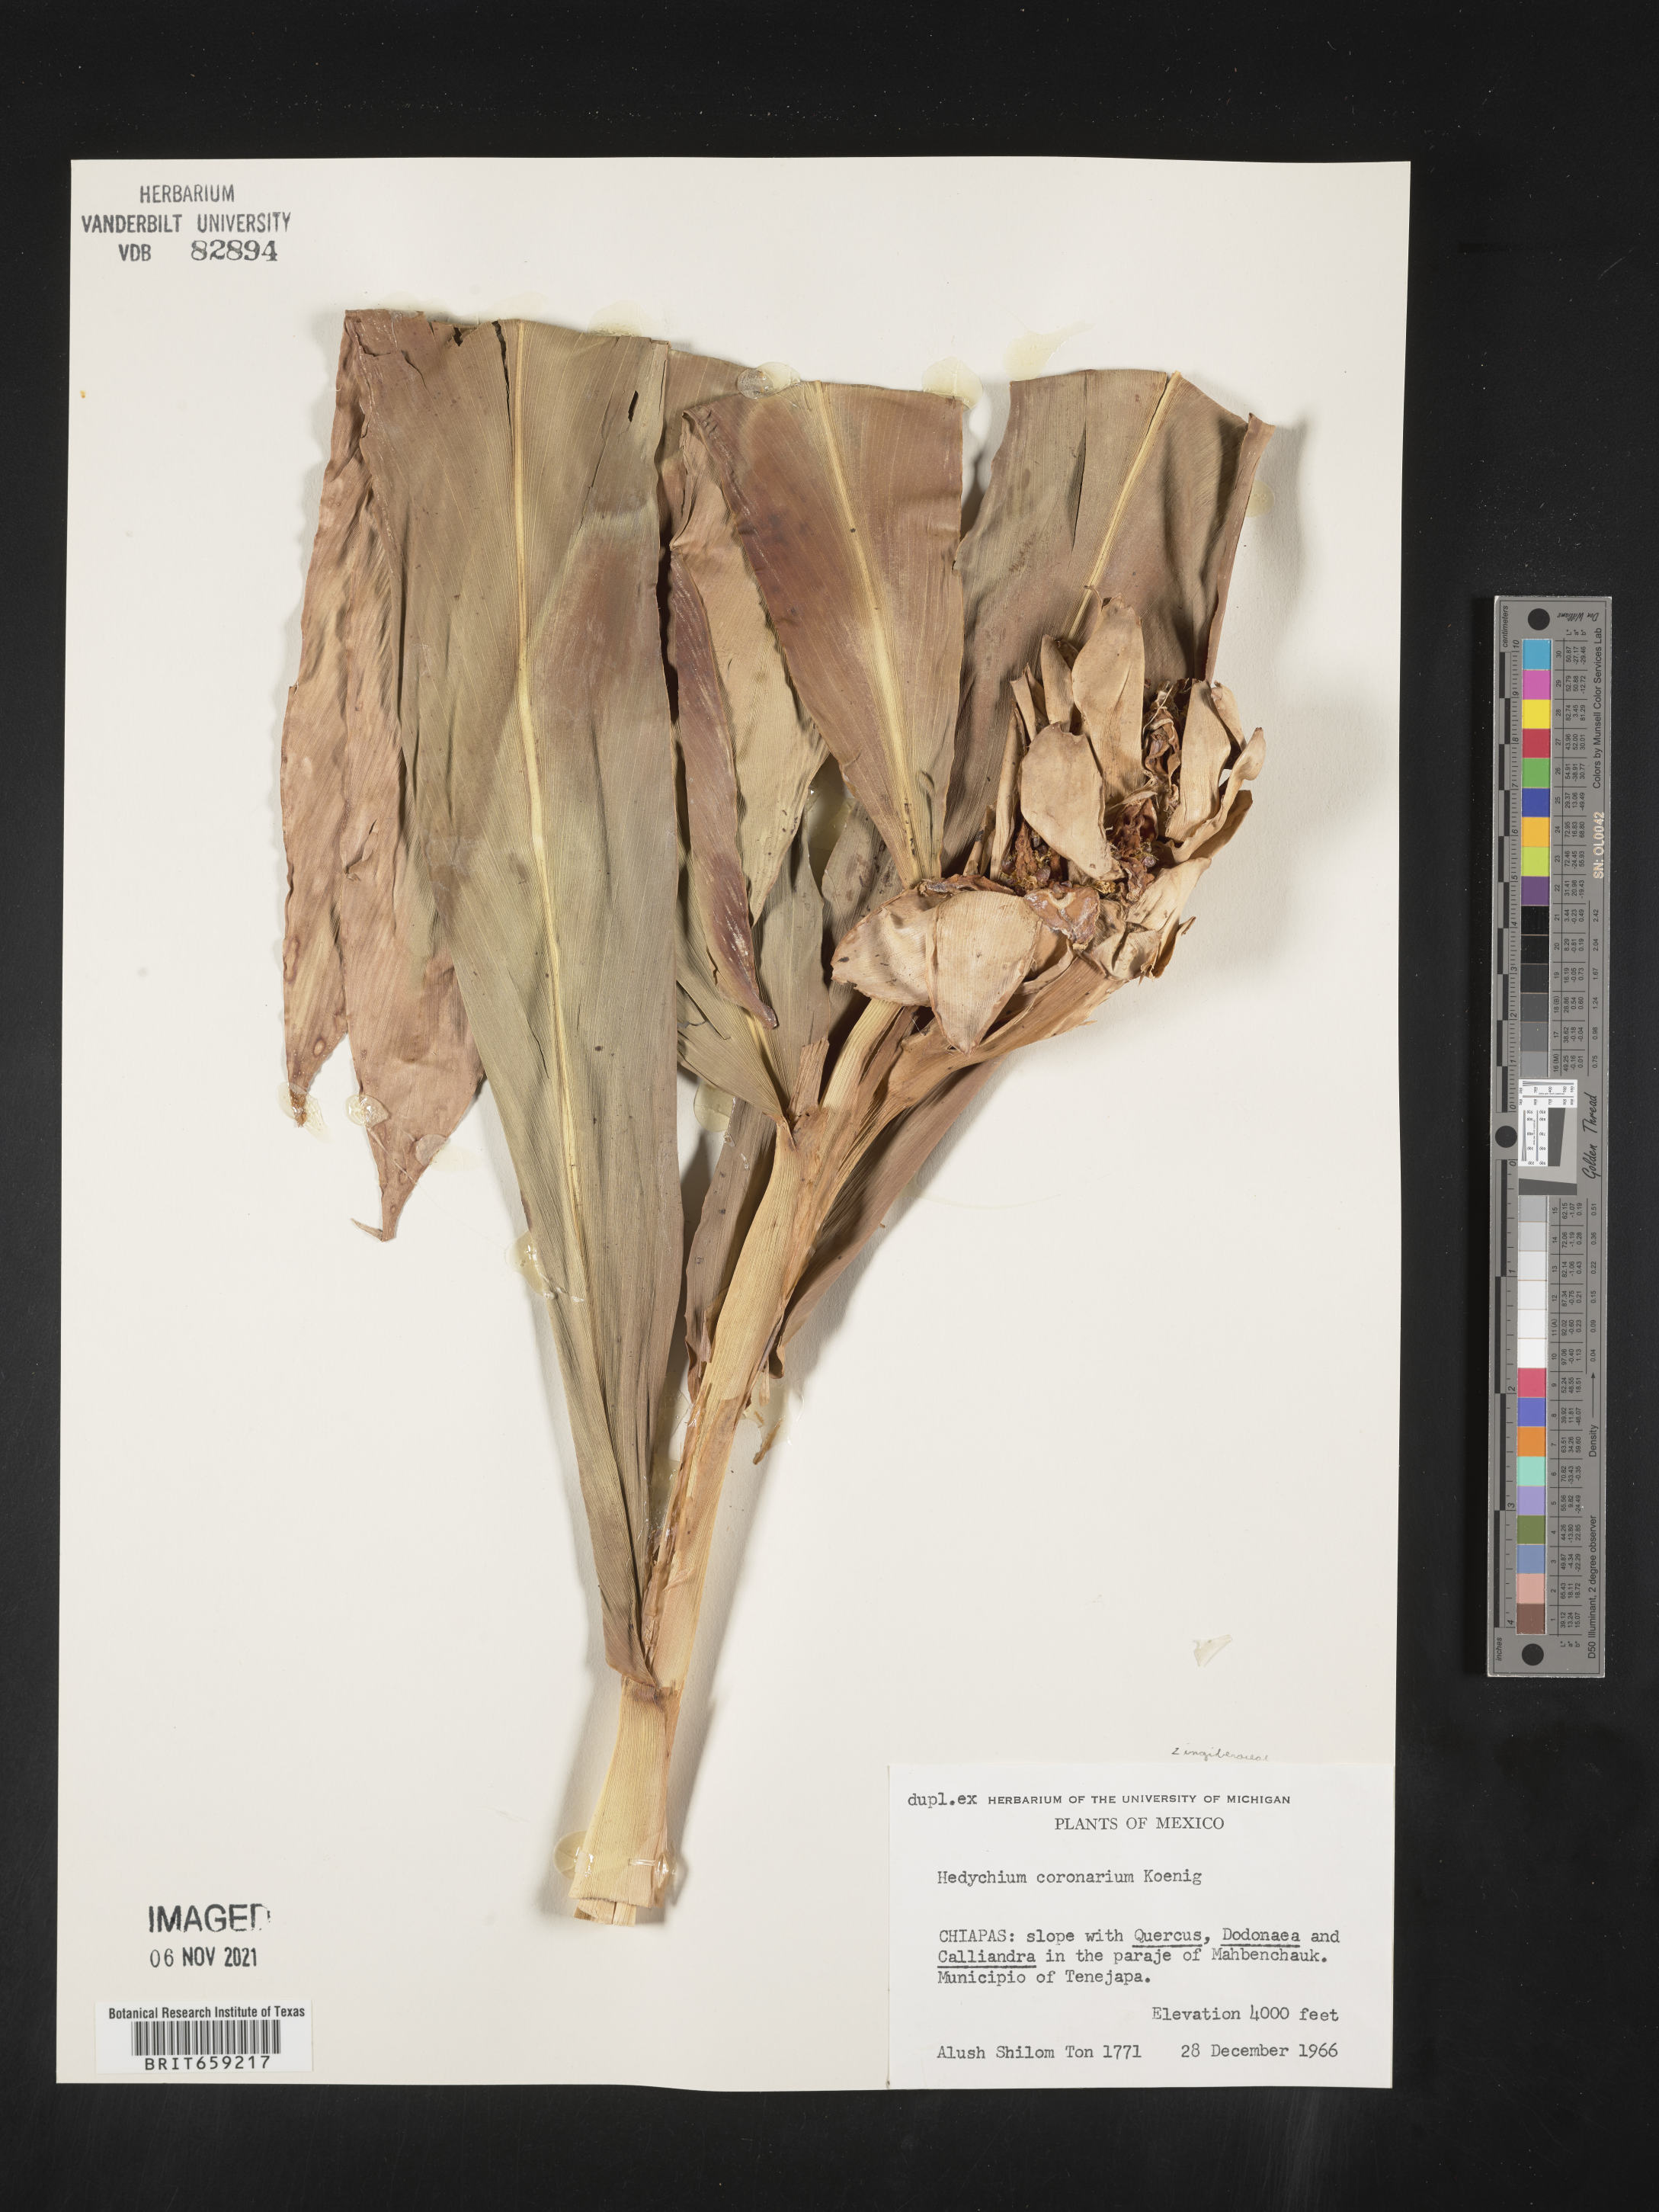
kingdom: Plantae
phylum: Tracheophyta
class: Liliopsida
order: Zingiberales
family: Zingiberaceae
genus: Hedychium
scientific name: Hedychium
